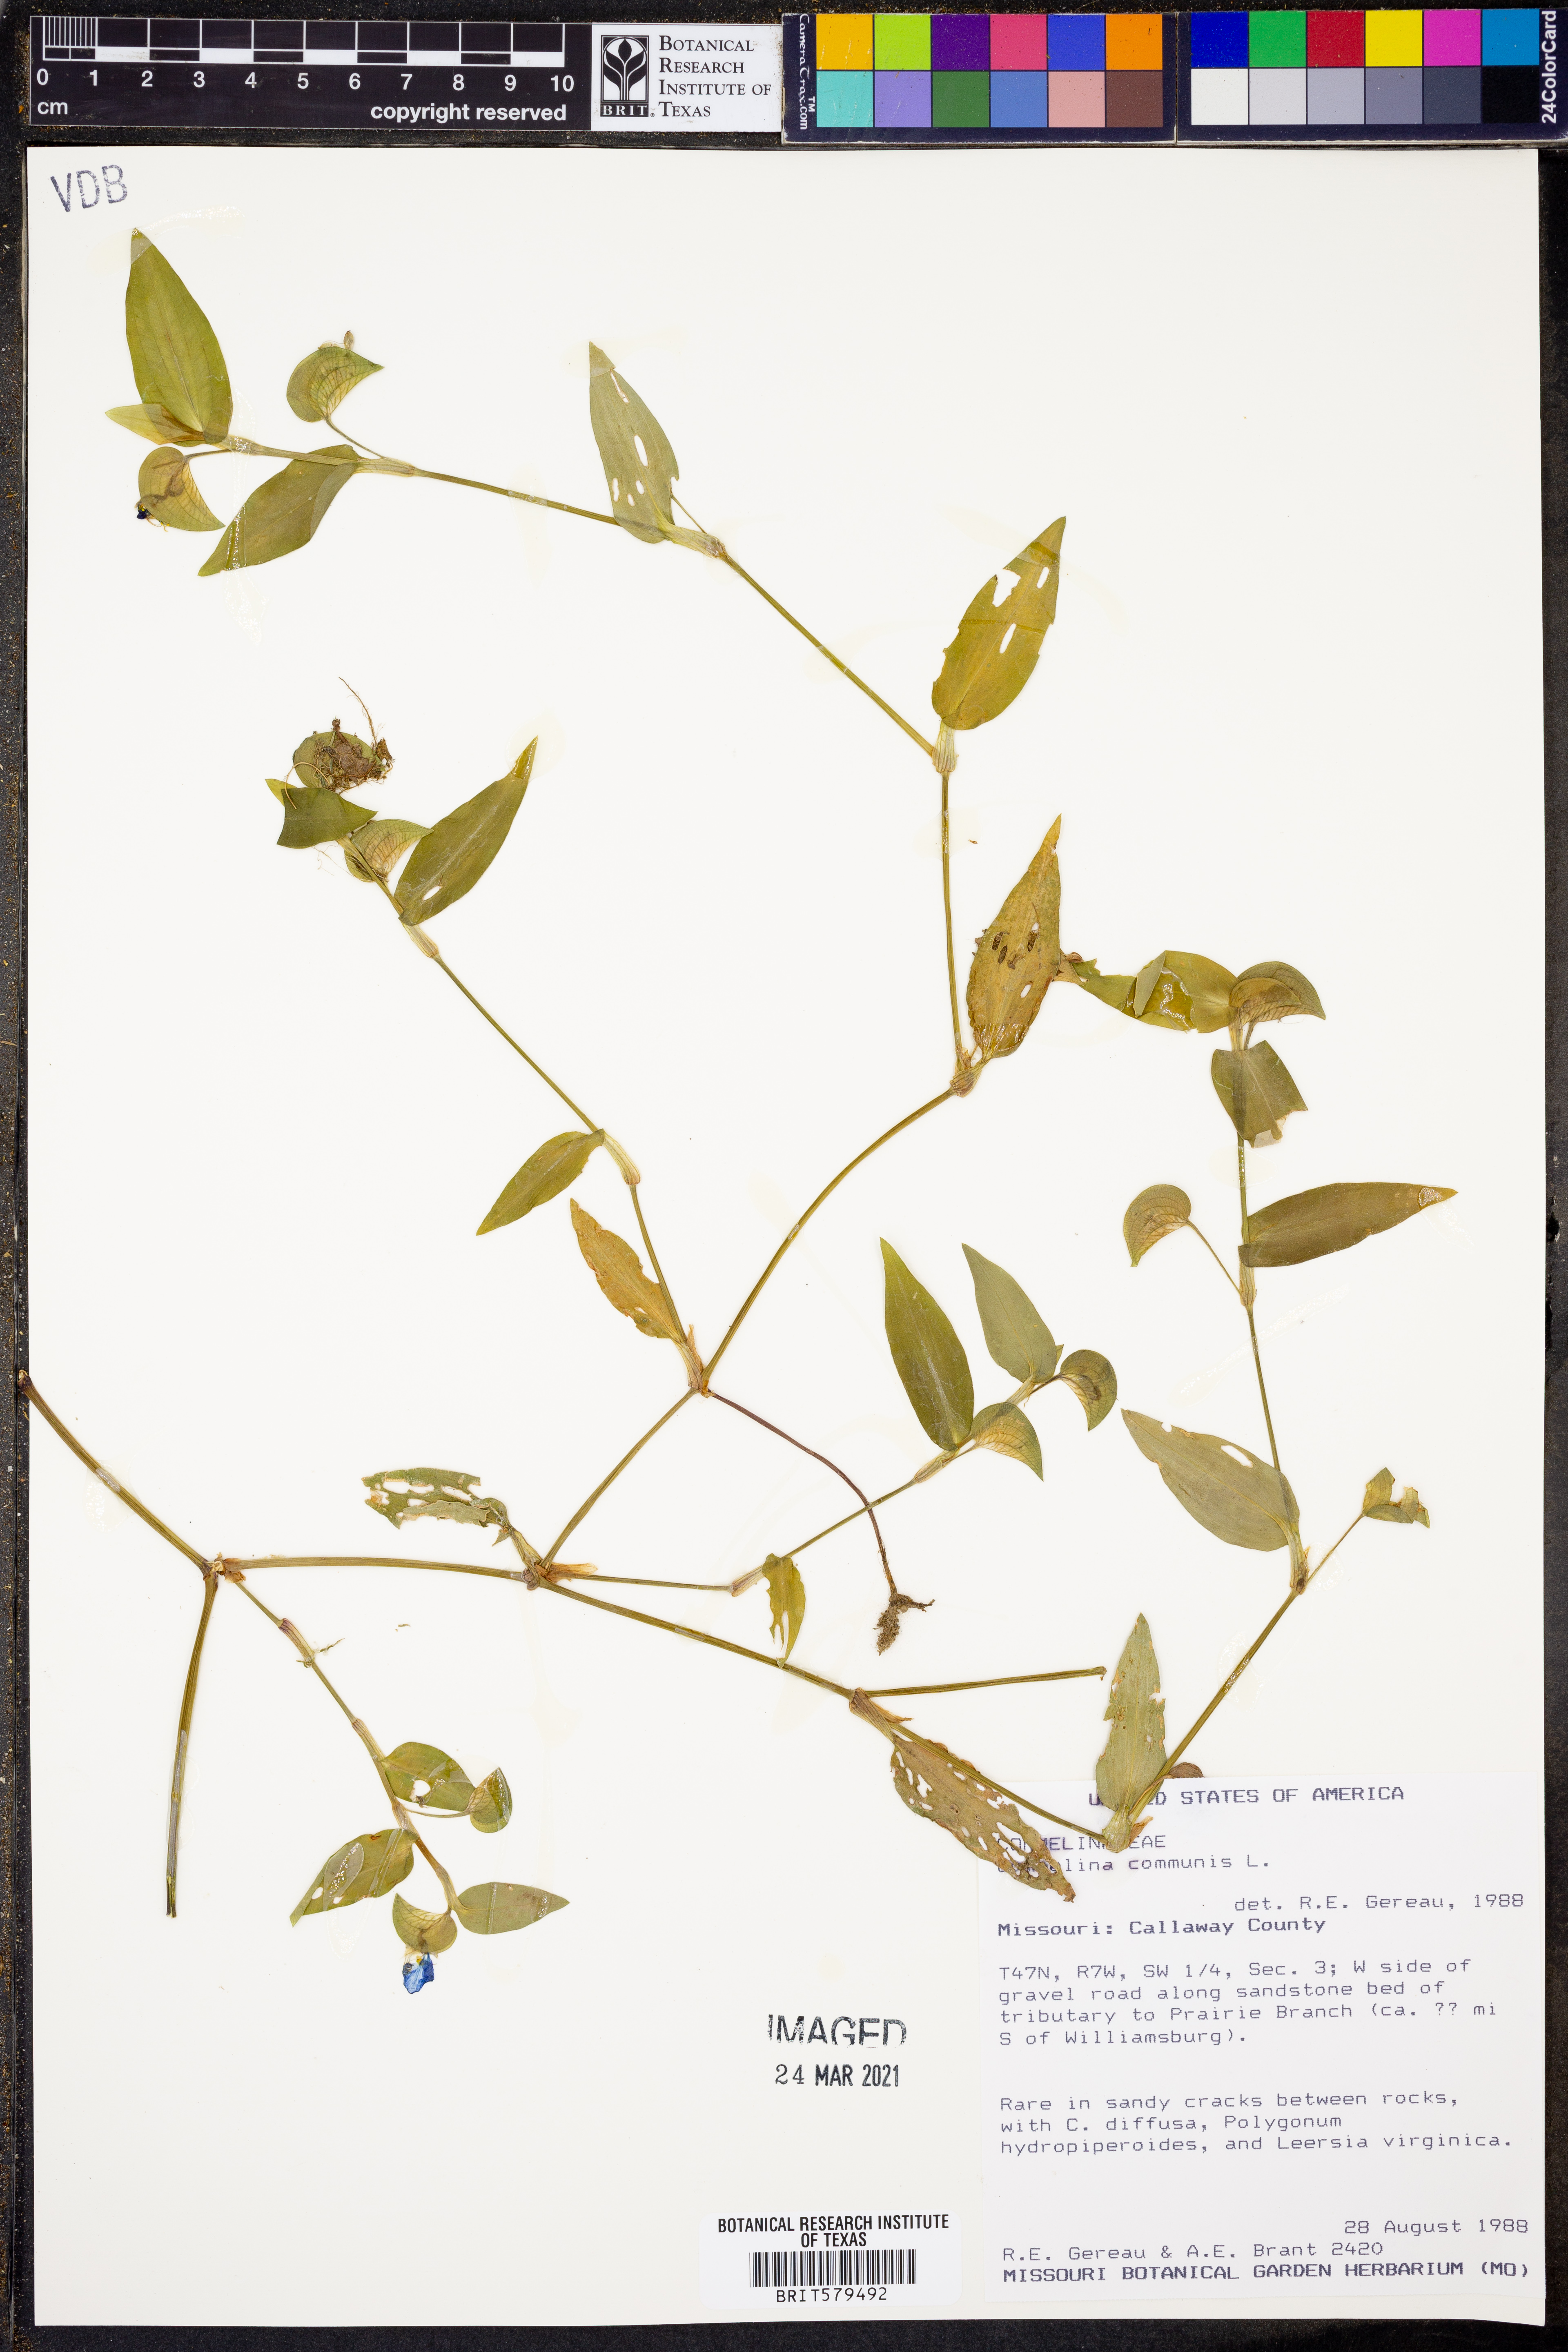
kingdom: Plantae
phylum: Tracheophyta
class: Liliopsida
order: Commelinales
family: Commelinaceae
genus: Commelina
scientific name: Commelina communis
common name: Asiatic dayflower
